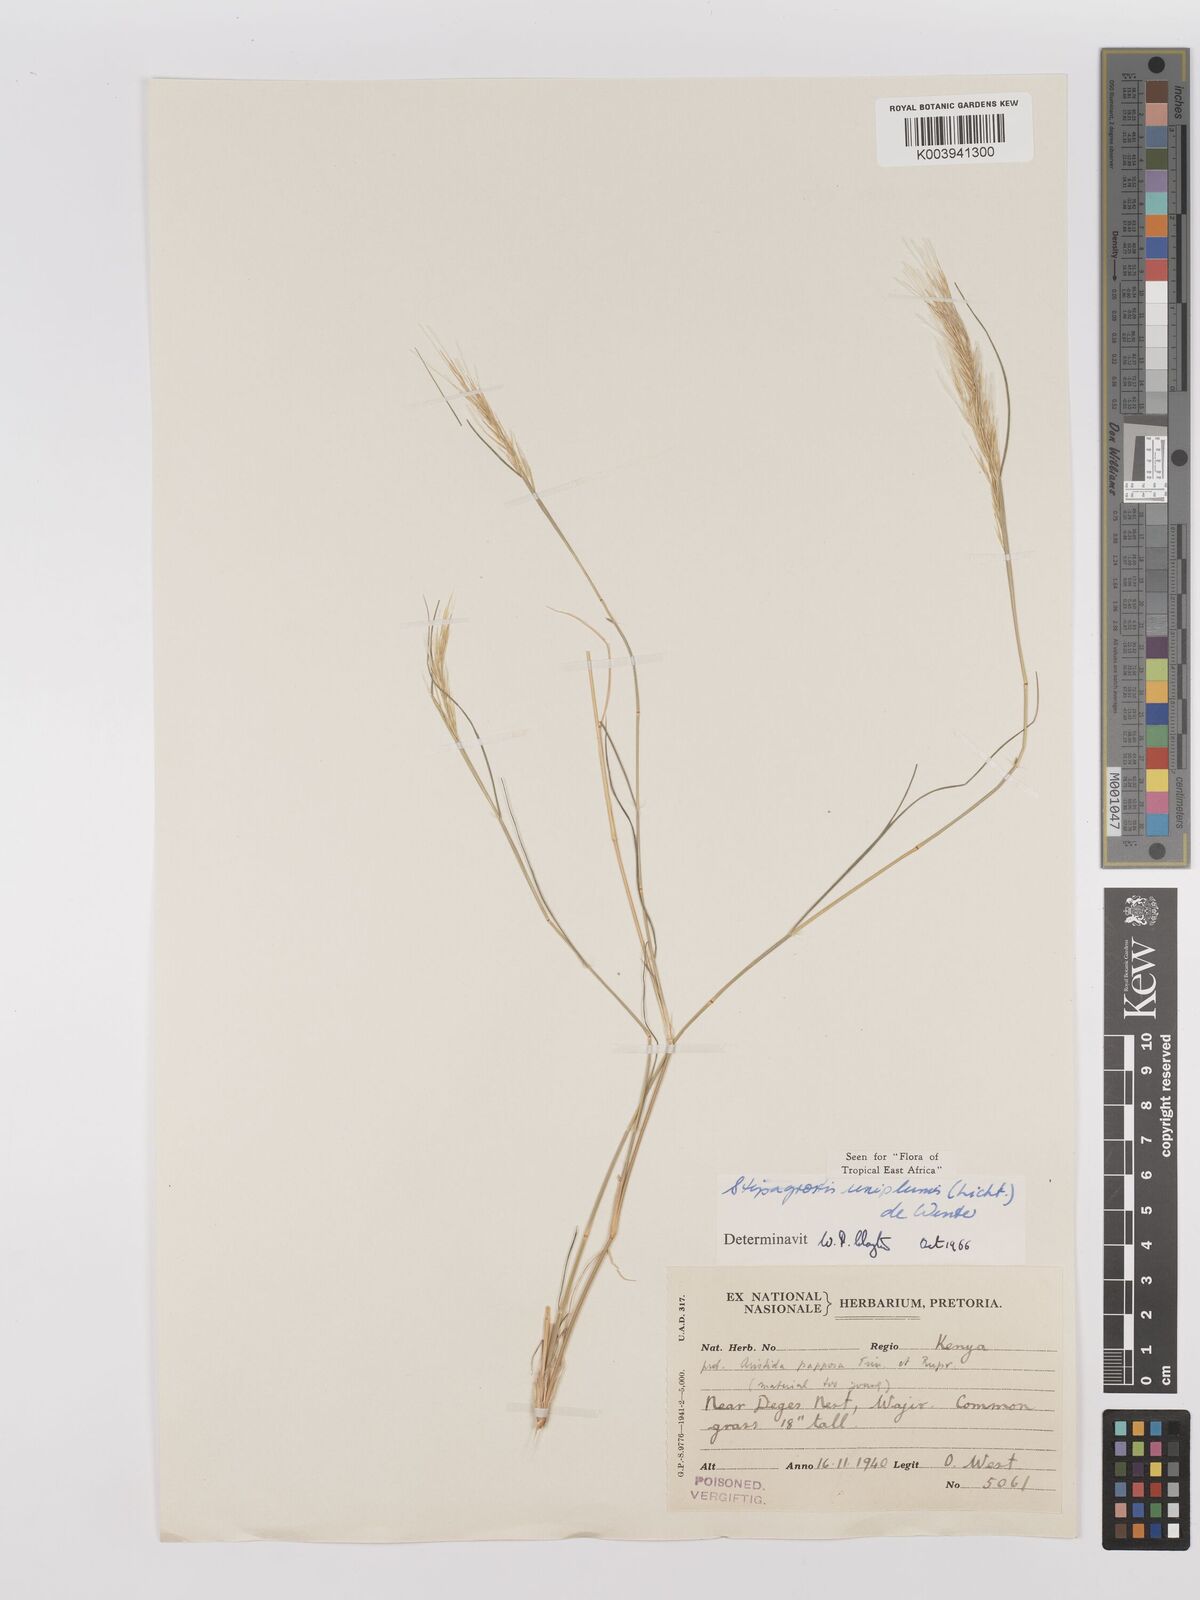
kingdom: Plantae
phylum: Tracheophyta
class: Liliopsida
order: Poales
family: Poaceae
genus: Stipagrostis
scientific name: Stipagrostis uniplumis
